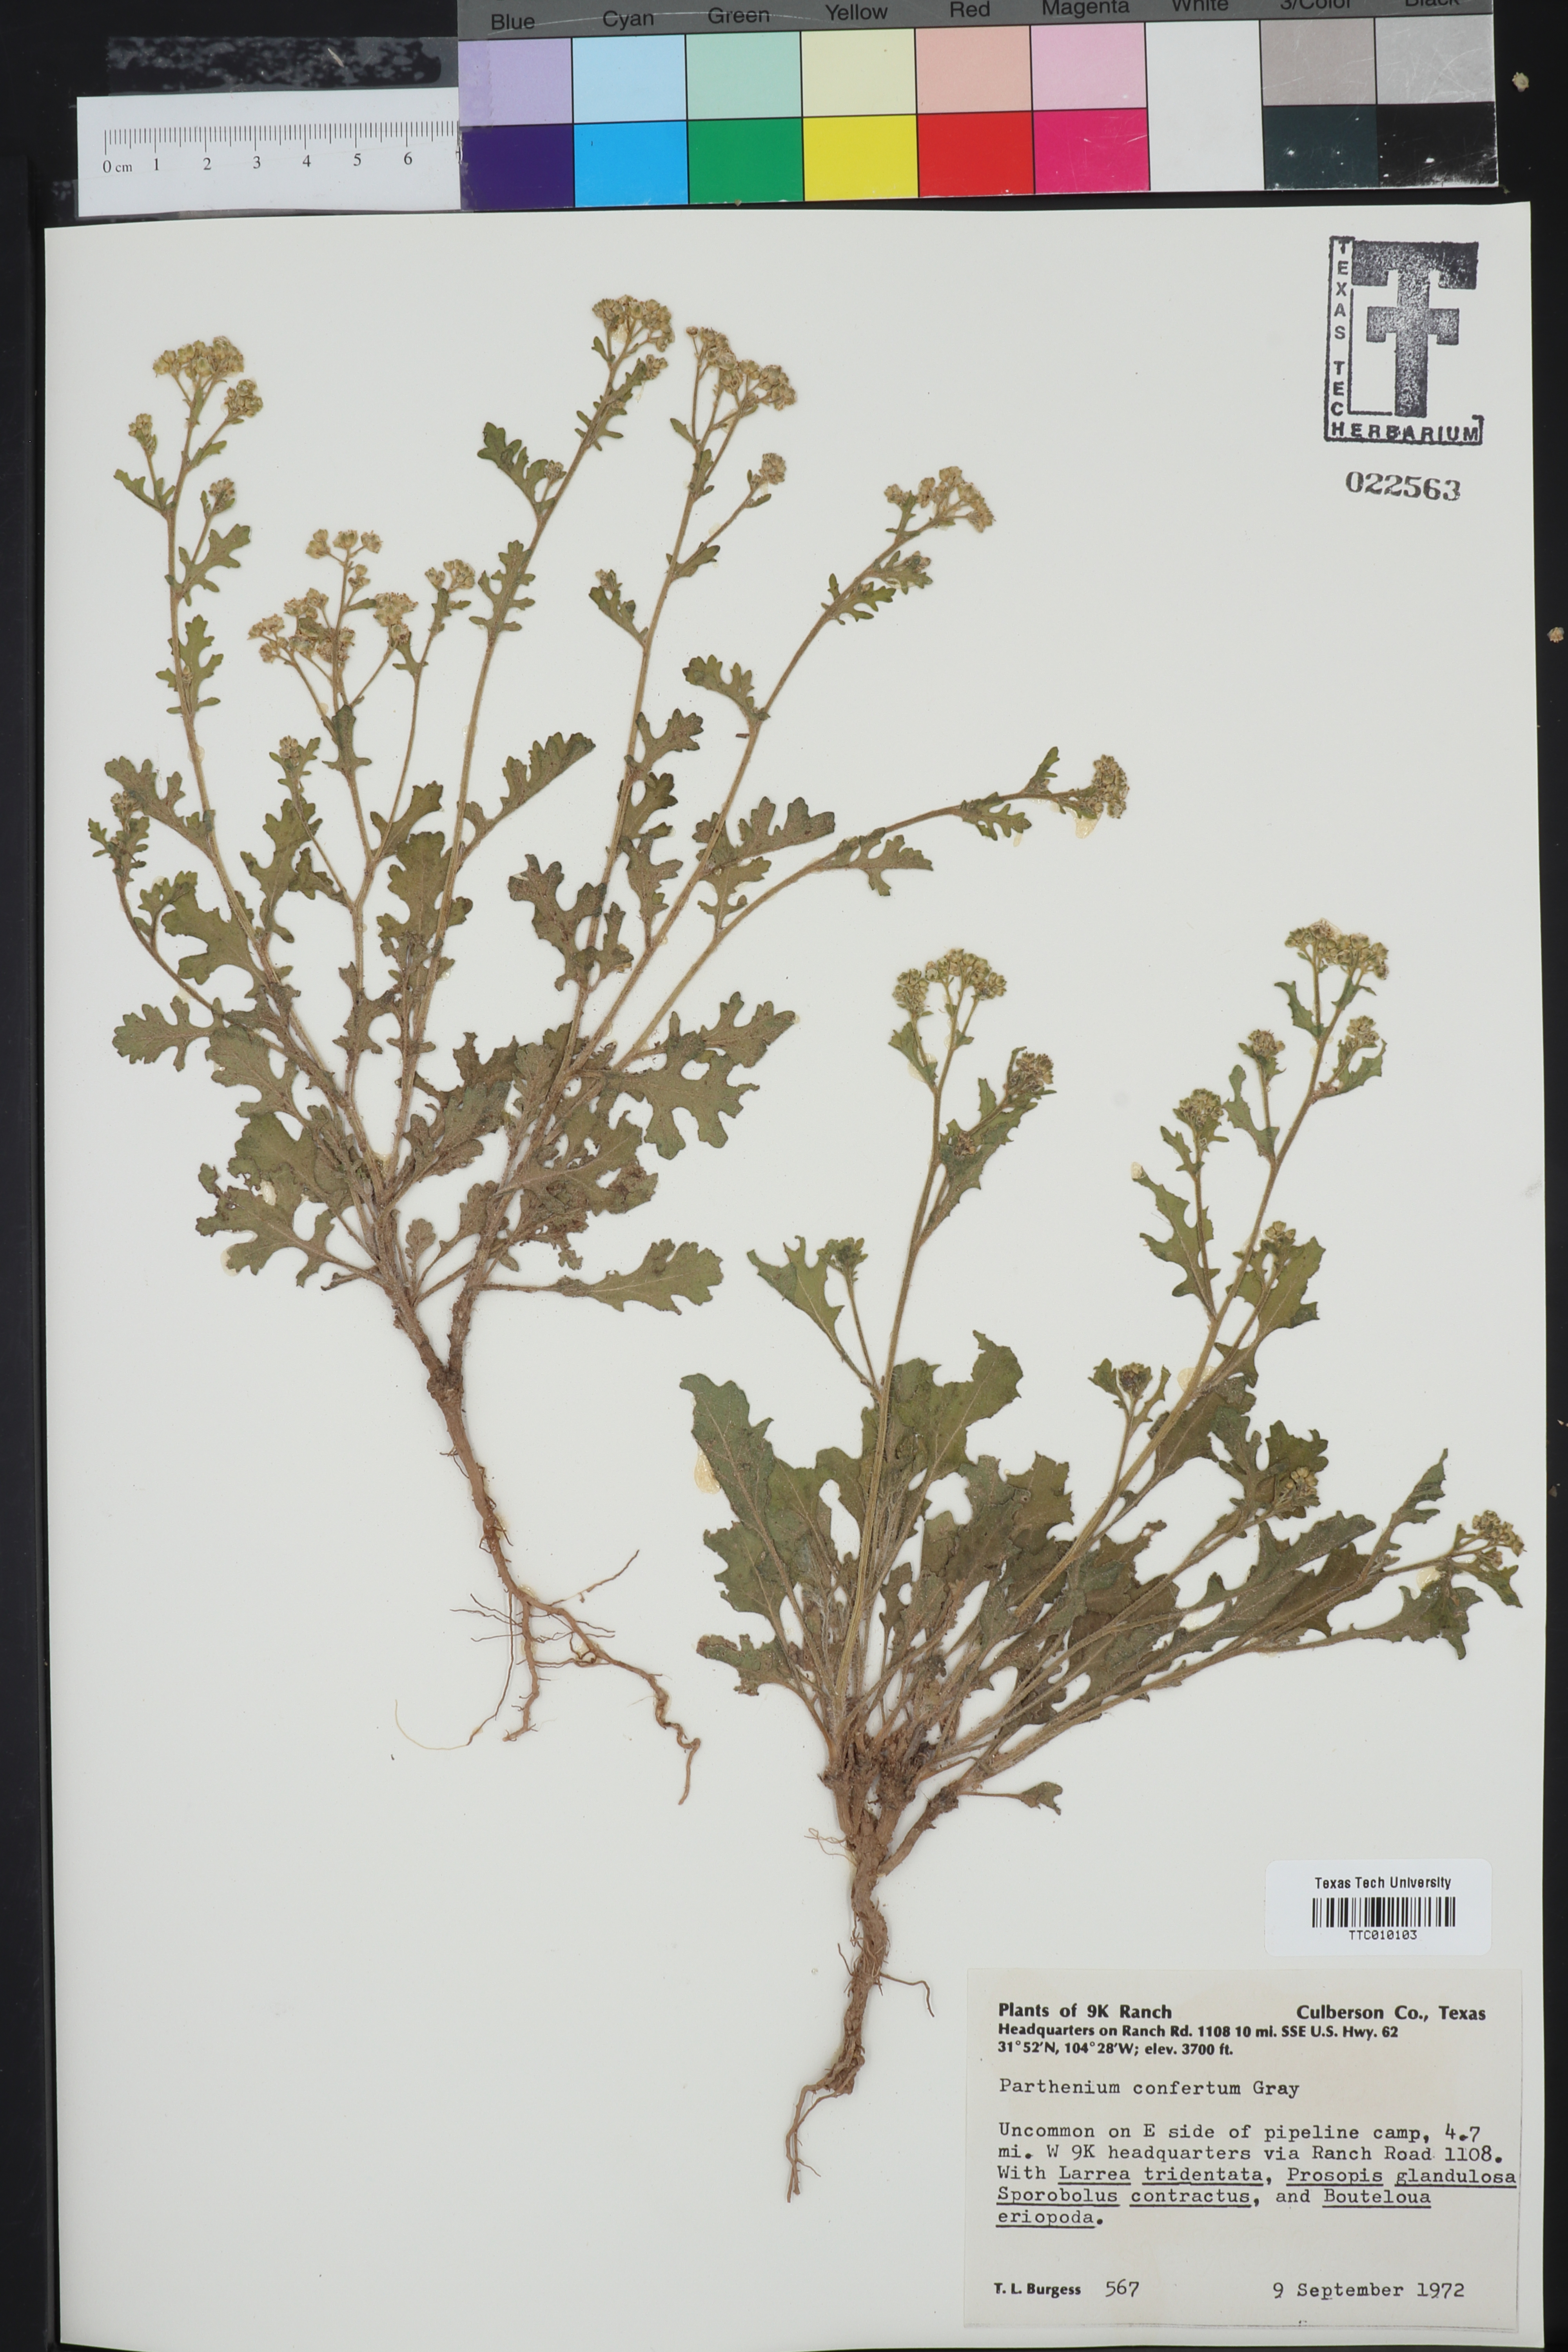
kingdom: Plantae
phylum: Tracheophyta
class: Magnoliopsida
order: Asterales
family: Asteraceae
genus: Parthenium
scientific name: Parthenium confertum
